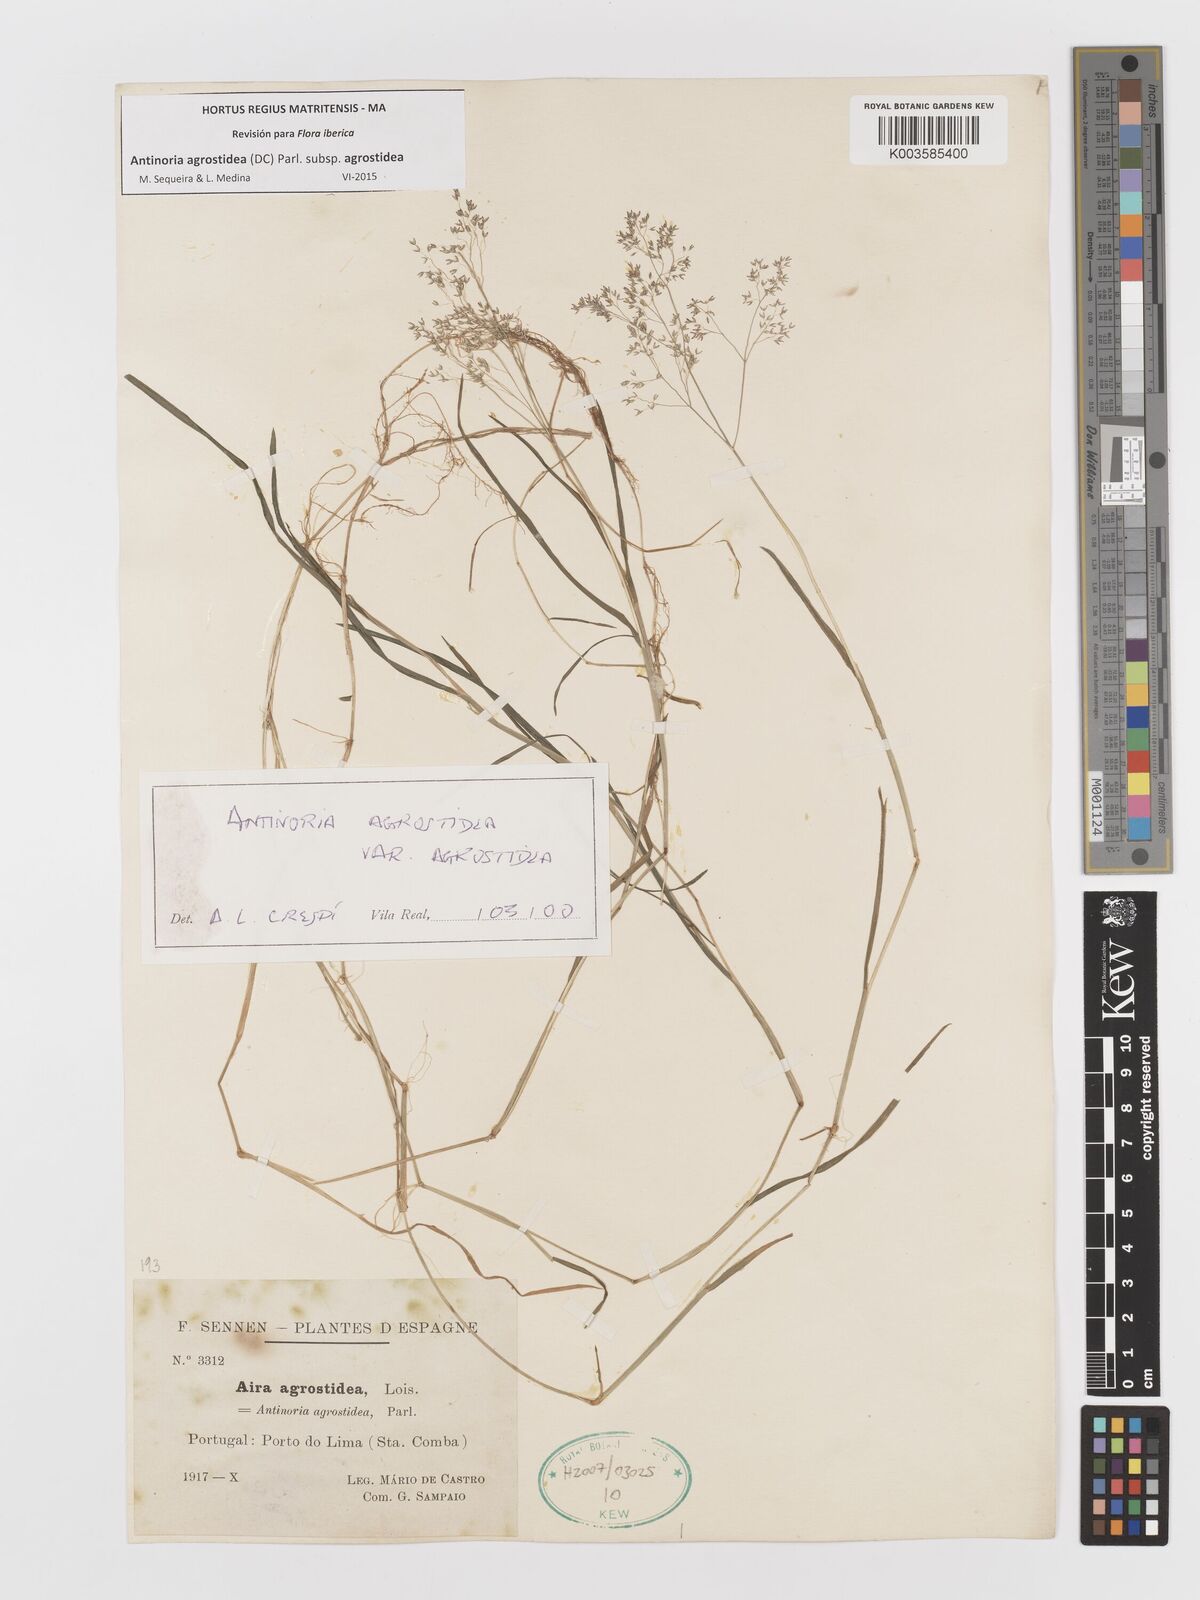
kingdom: Plantae
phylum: Tracheophyta
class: Liliopsida
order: Poales
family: Poaceae
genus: Antinoria
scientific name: Antinoria agrostidea
